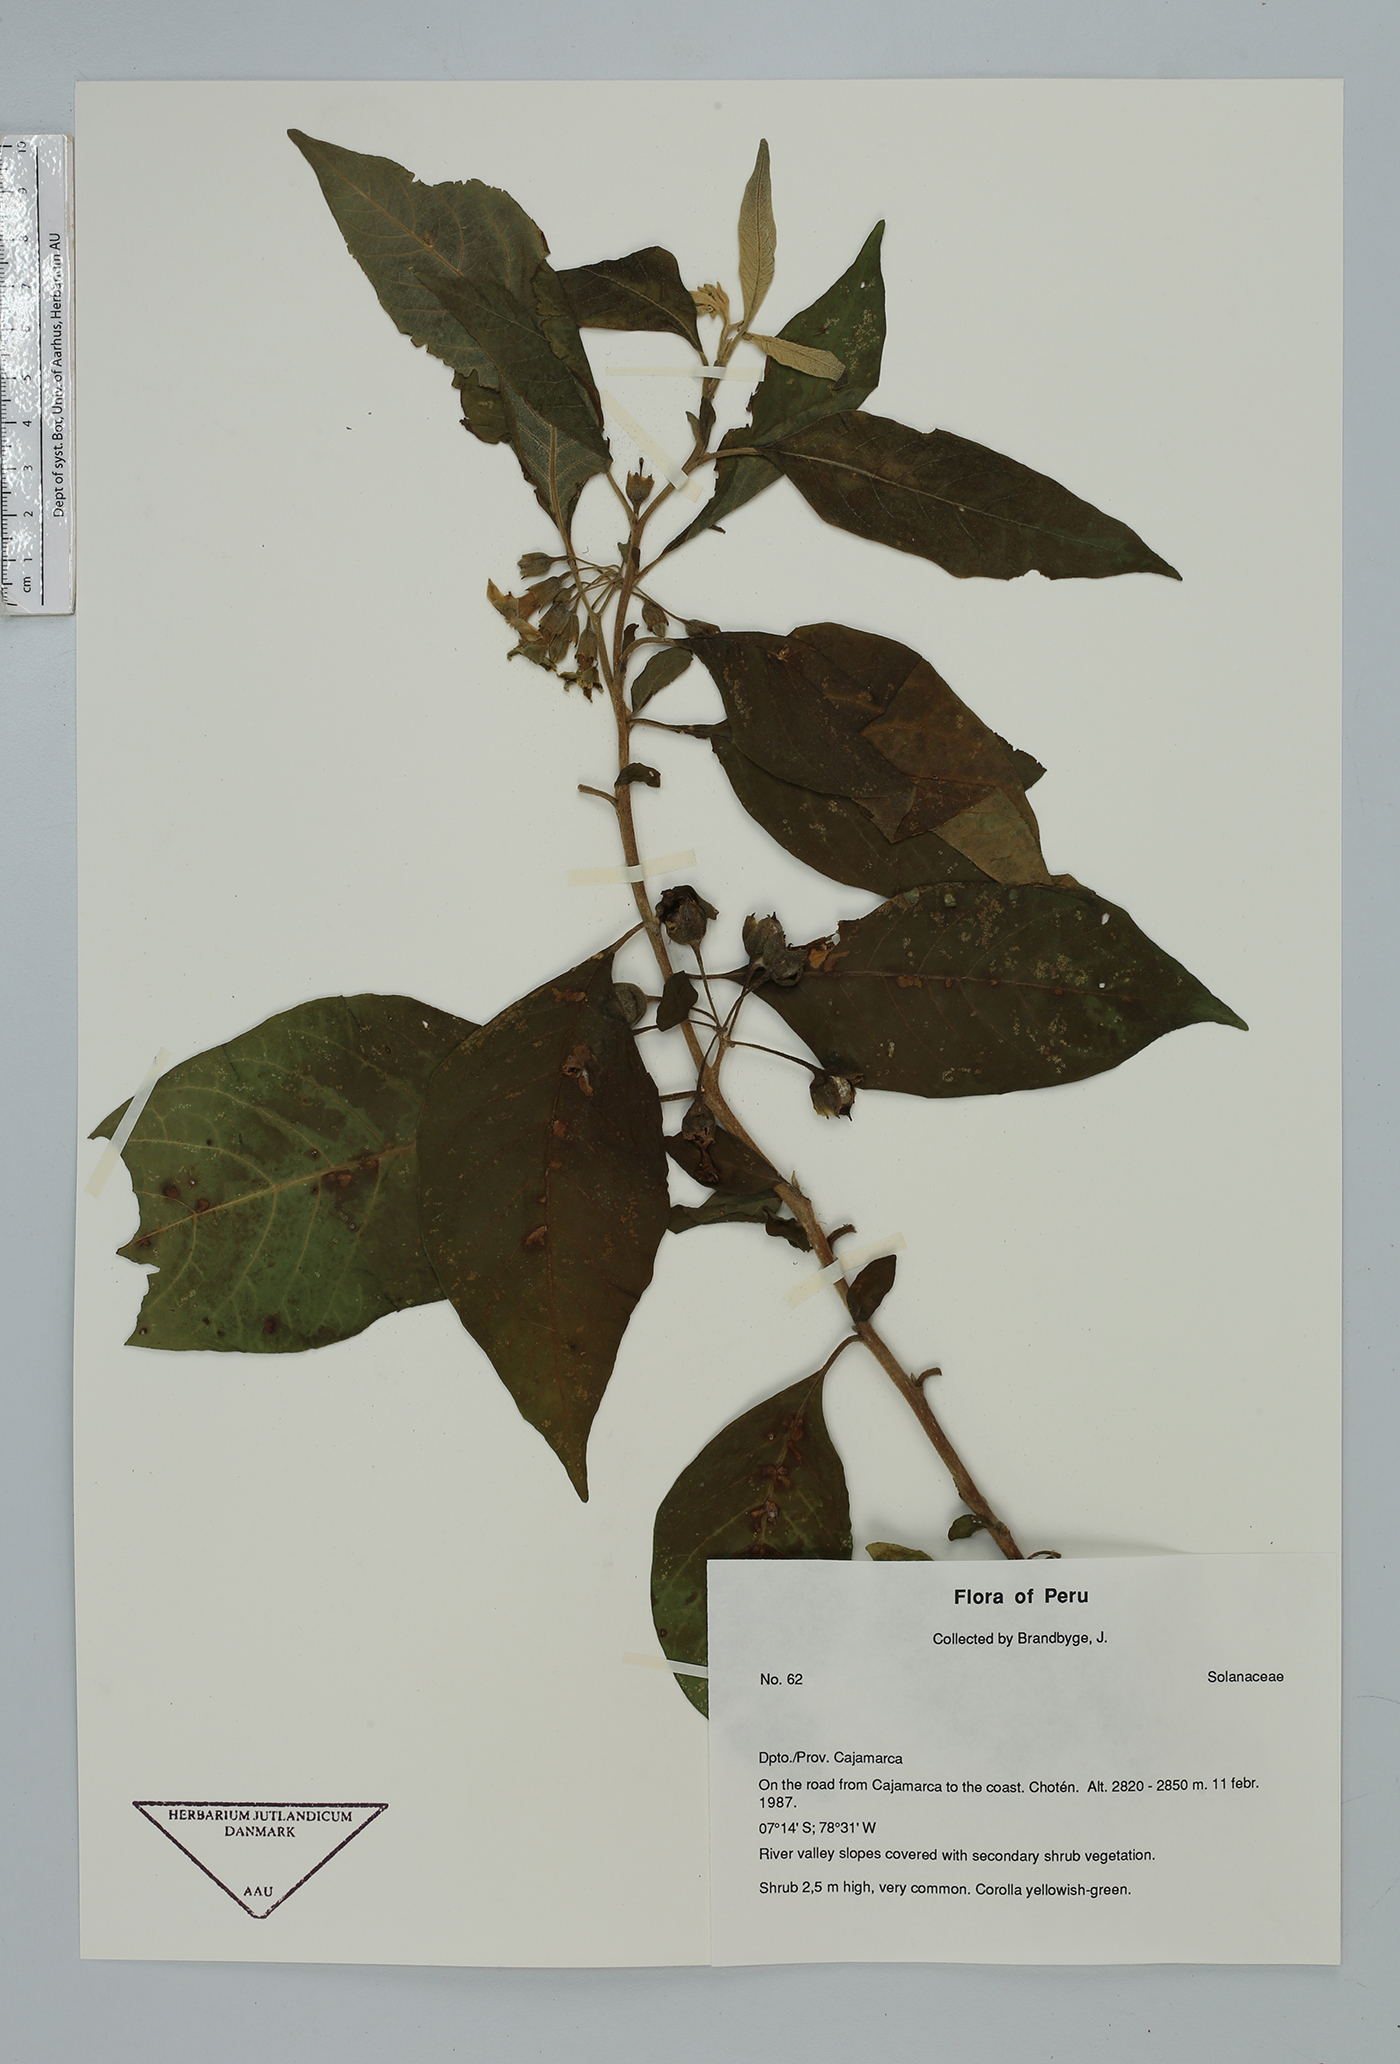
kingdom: Plantae
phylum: Tracheophyta
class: Magnoliopsida
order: Solanales
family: Solanaceae
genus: Iochroma
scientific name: Iochroma
